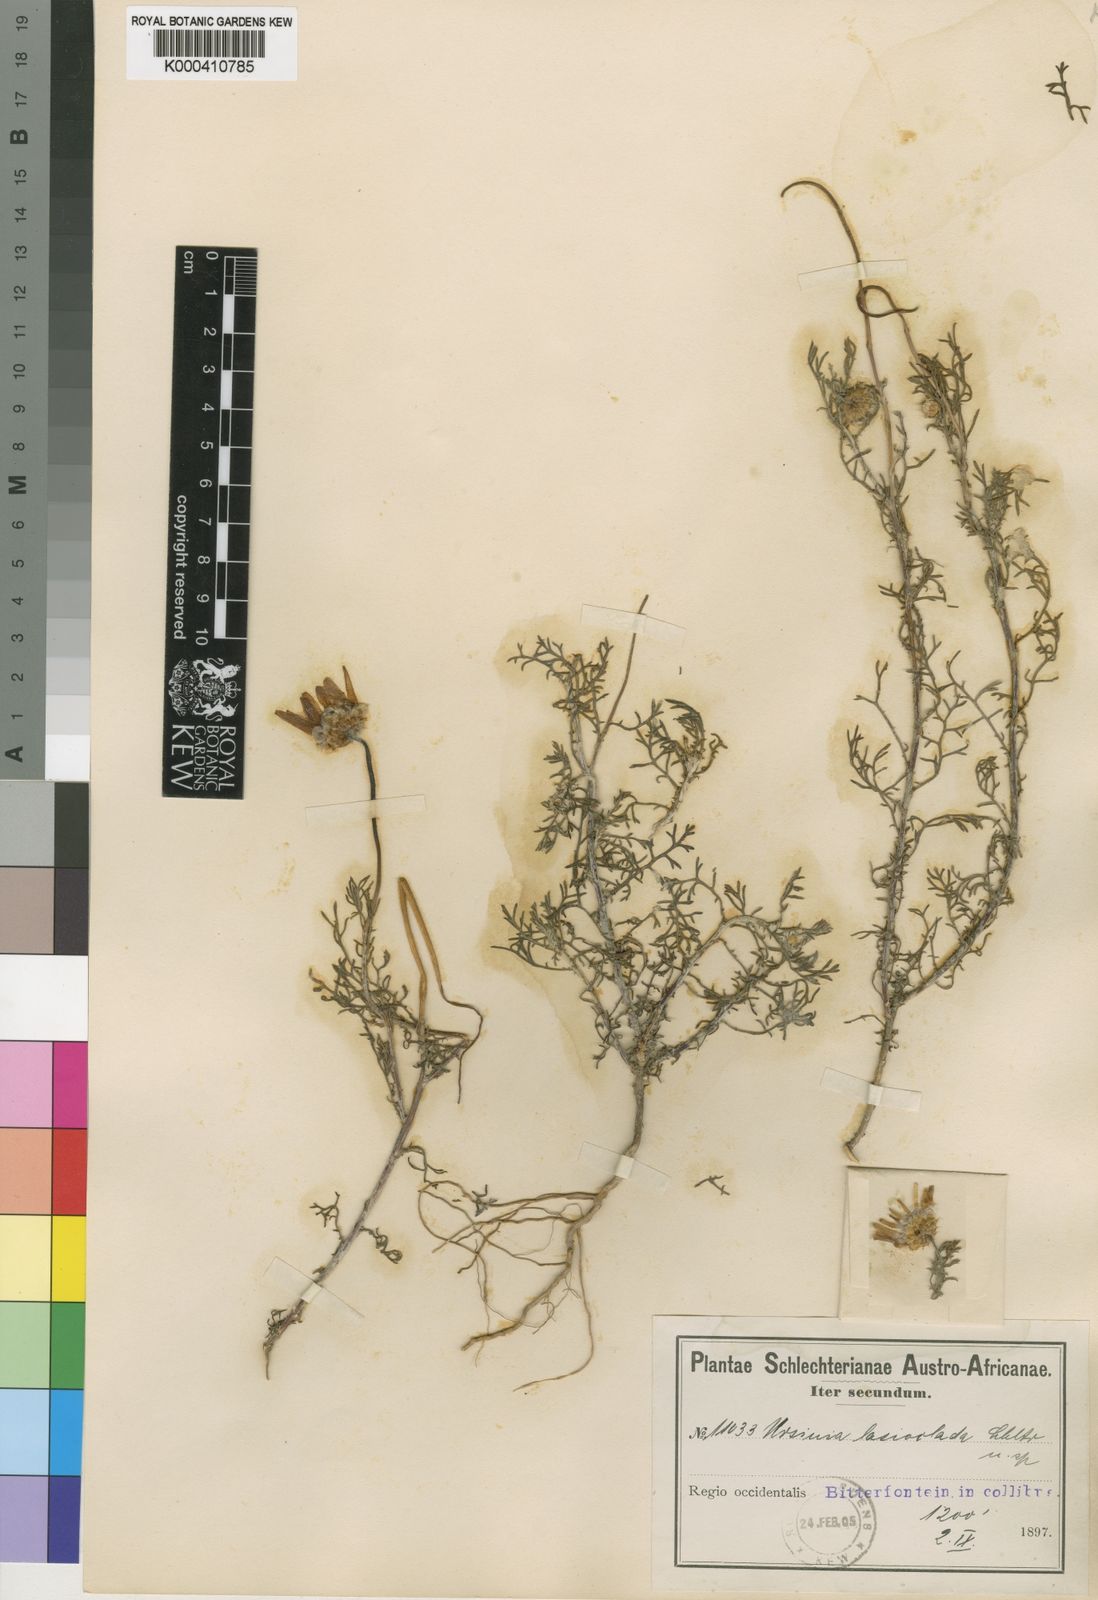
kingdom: Plantae
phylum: Tracheophyta
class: Magnoliopsida
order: Asterales
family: Asteraceae
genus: Ursinia
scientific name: Ursinia chrysanthemoides
